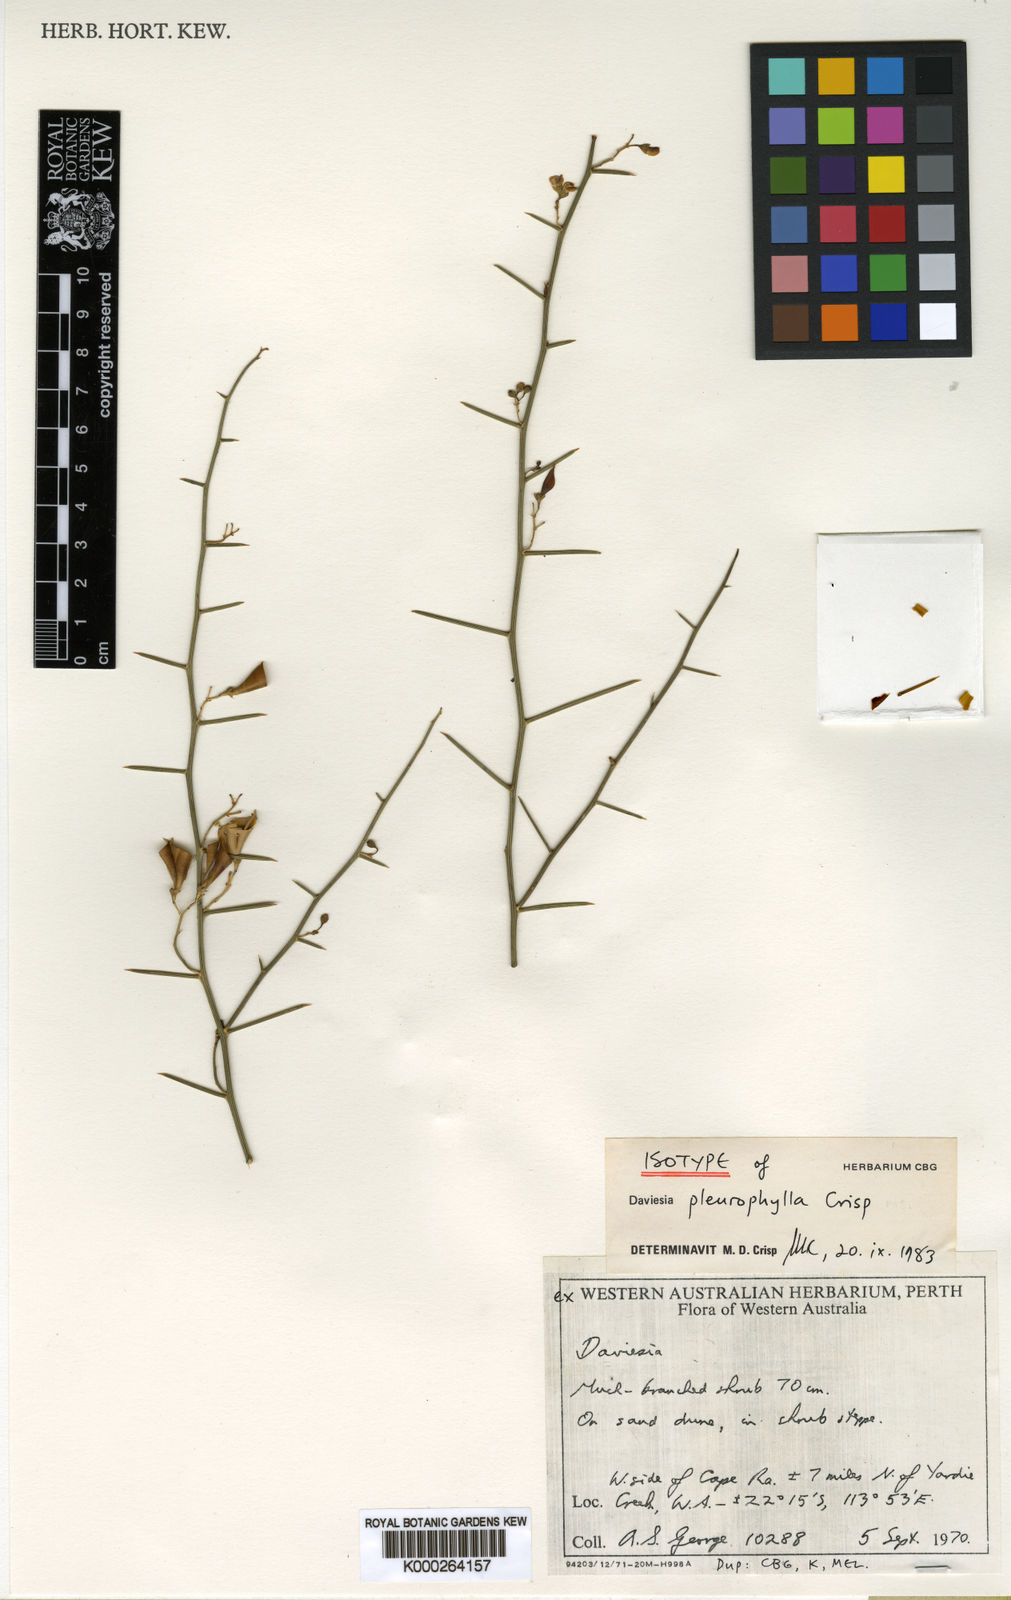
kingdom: Plantae
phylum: Tracheophyta
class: Magnoliopsida
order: Fabales
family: Fabaceae
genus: Daviesia
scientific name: Daviesia pleurophylla
